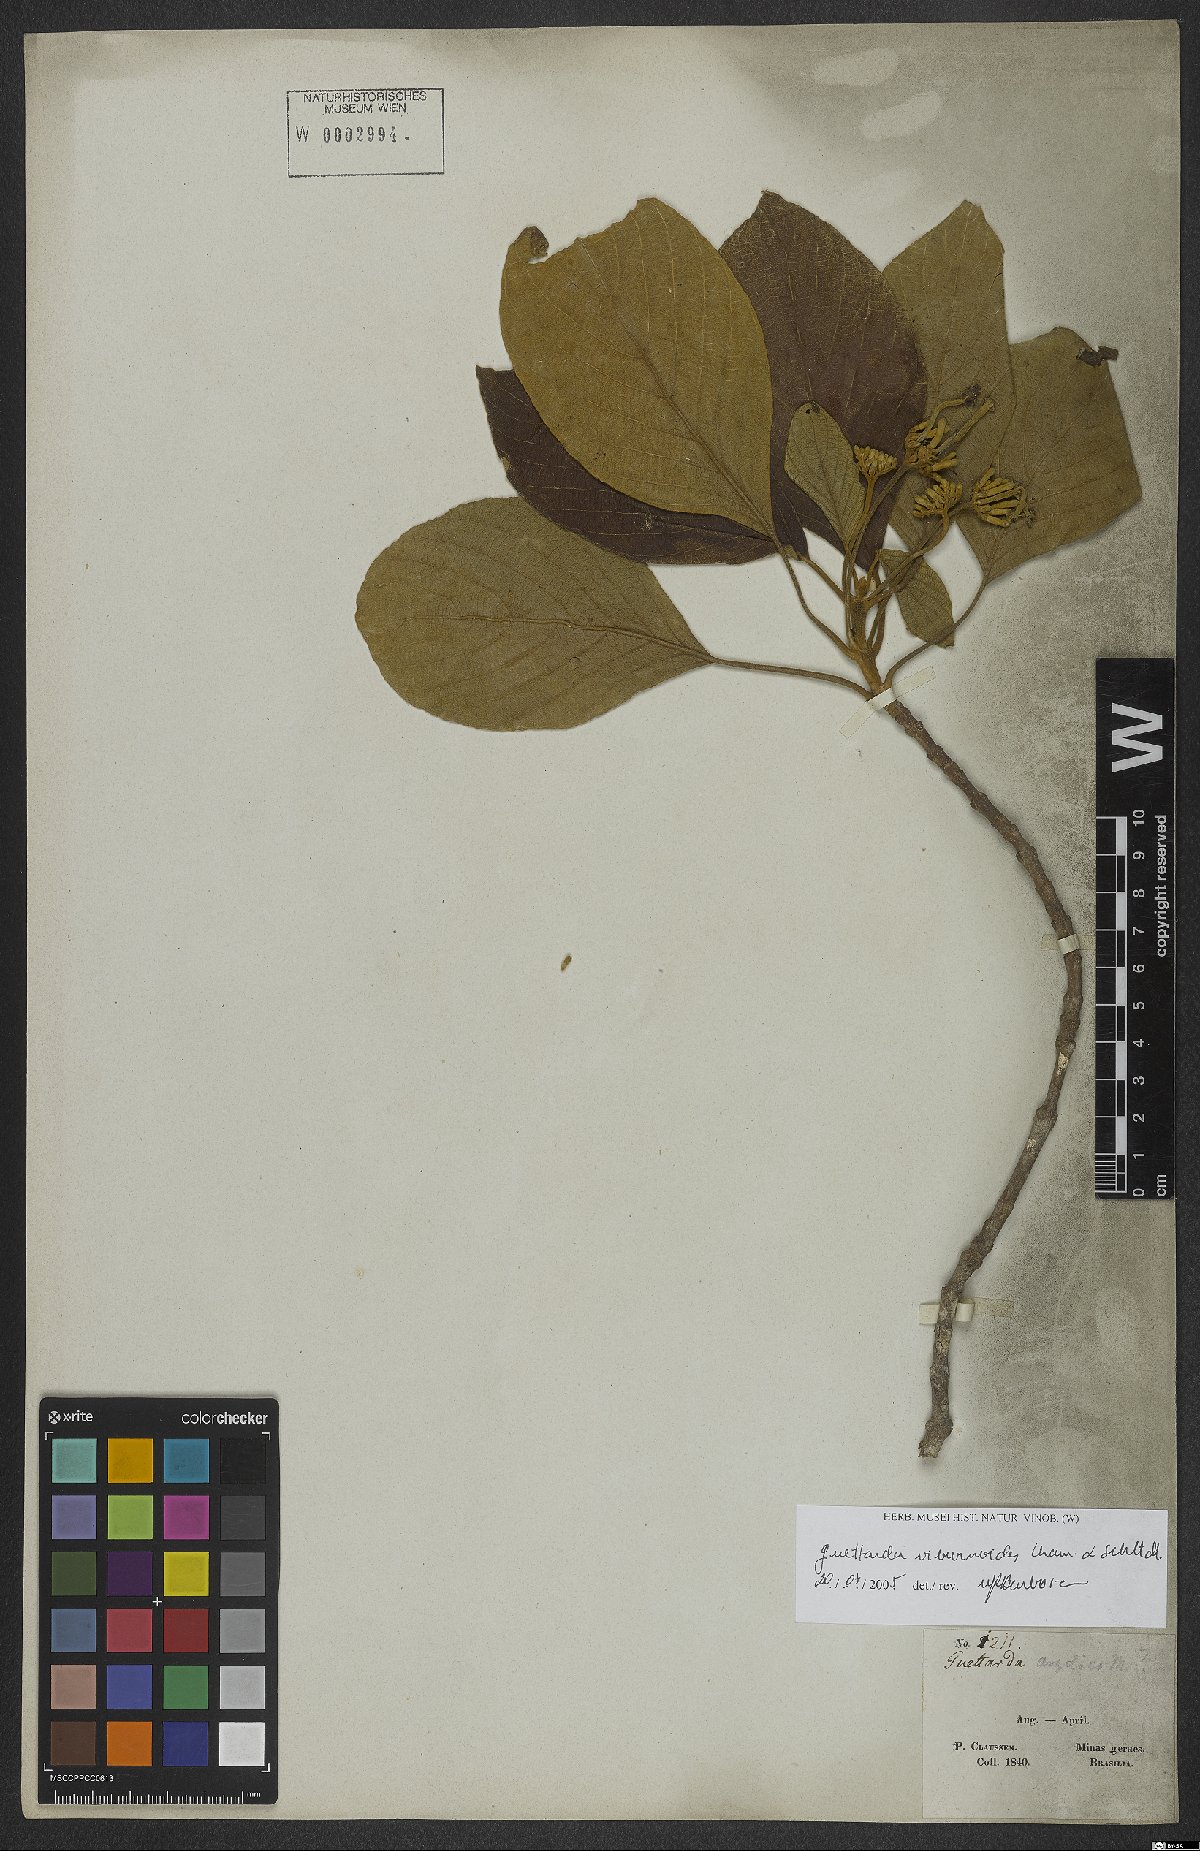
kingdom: Plantae
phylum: Tracheophyta
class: Magnoliopsida
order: Gentianales
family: Rubiaceae
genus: Guettarda
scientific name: Guettarda viburnoides
